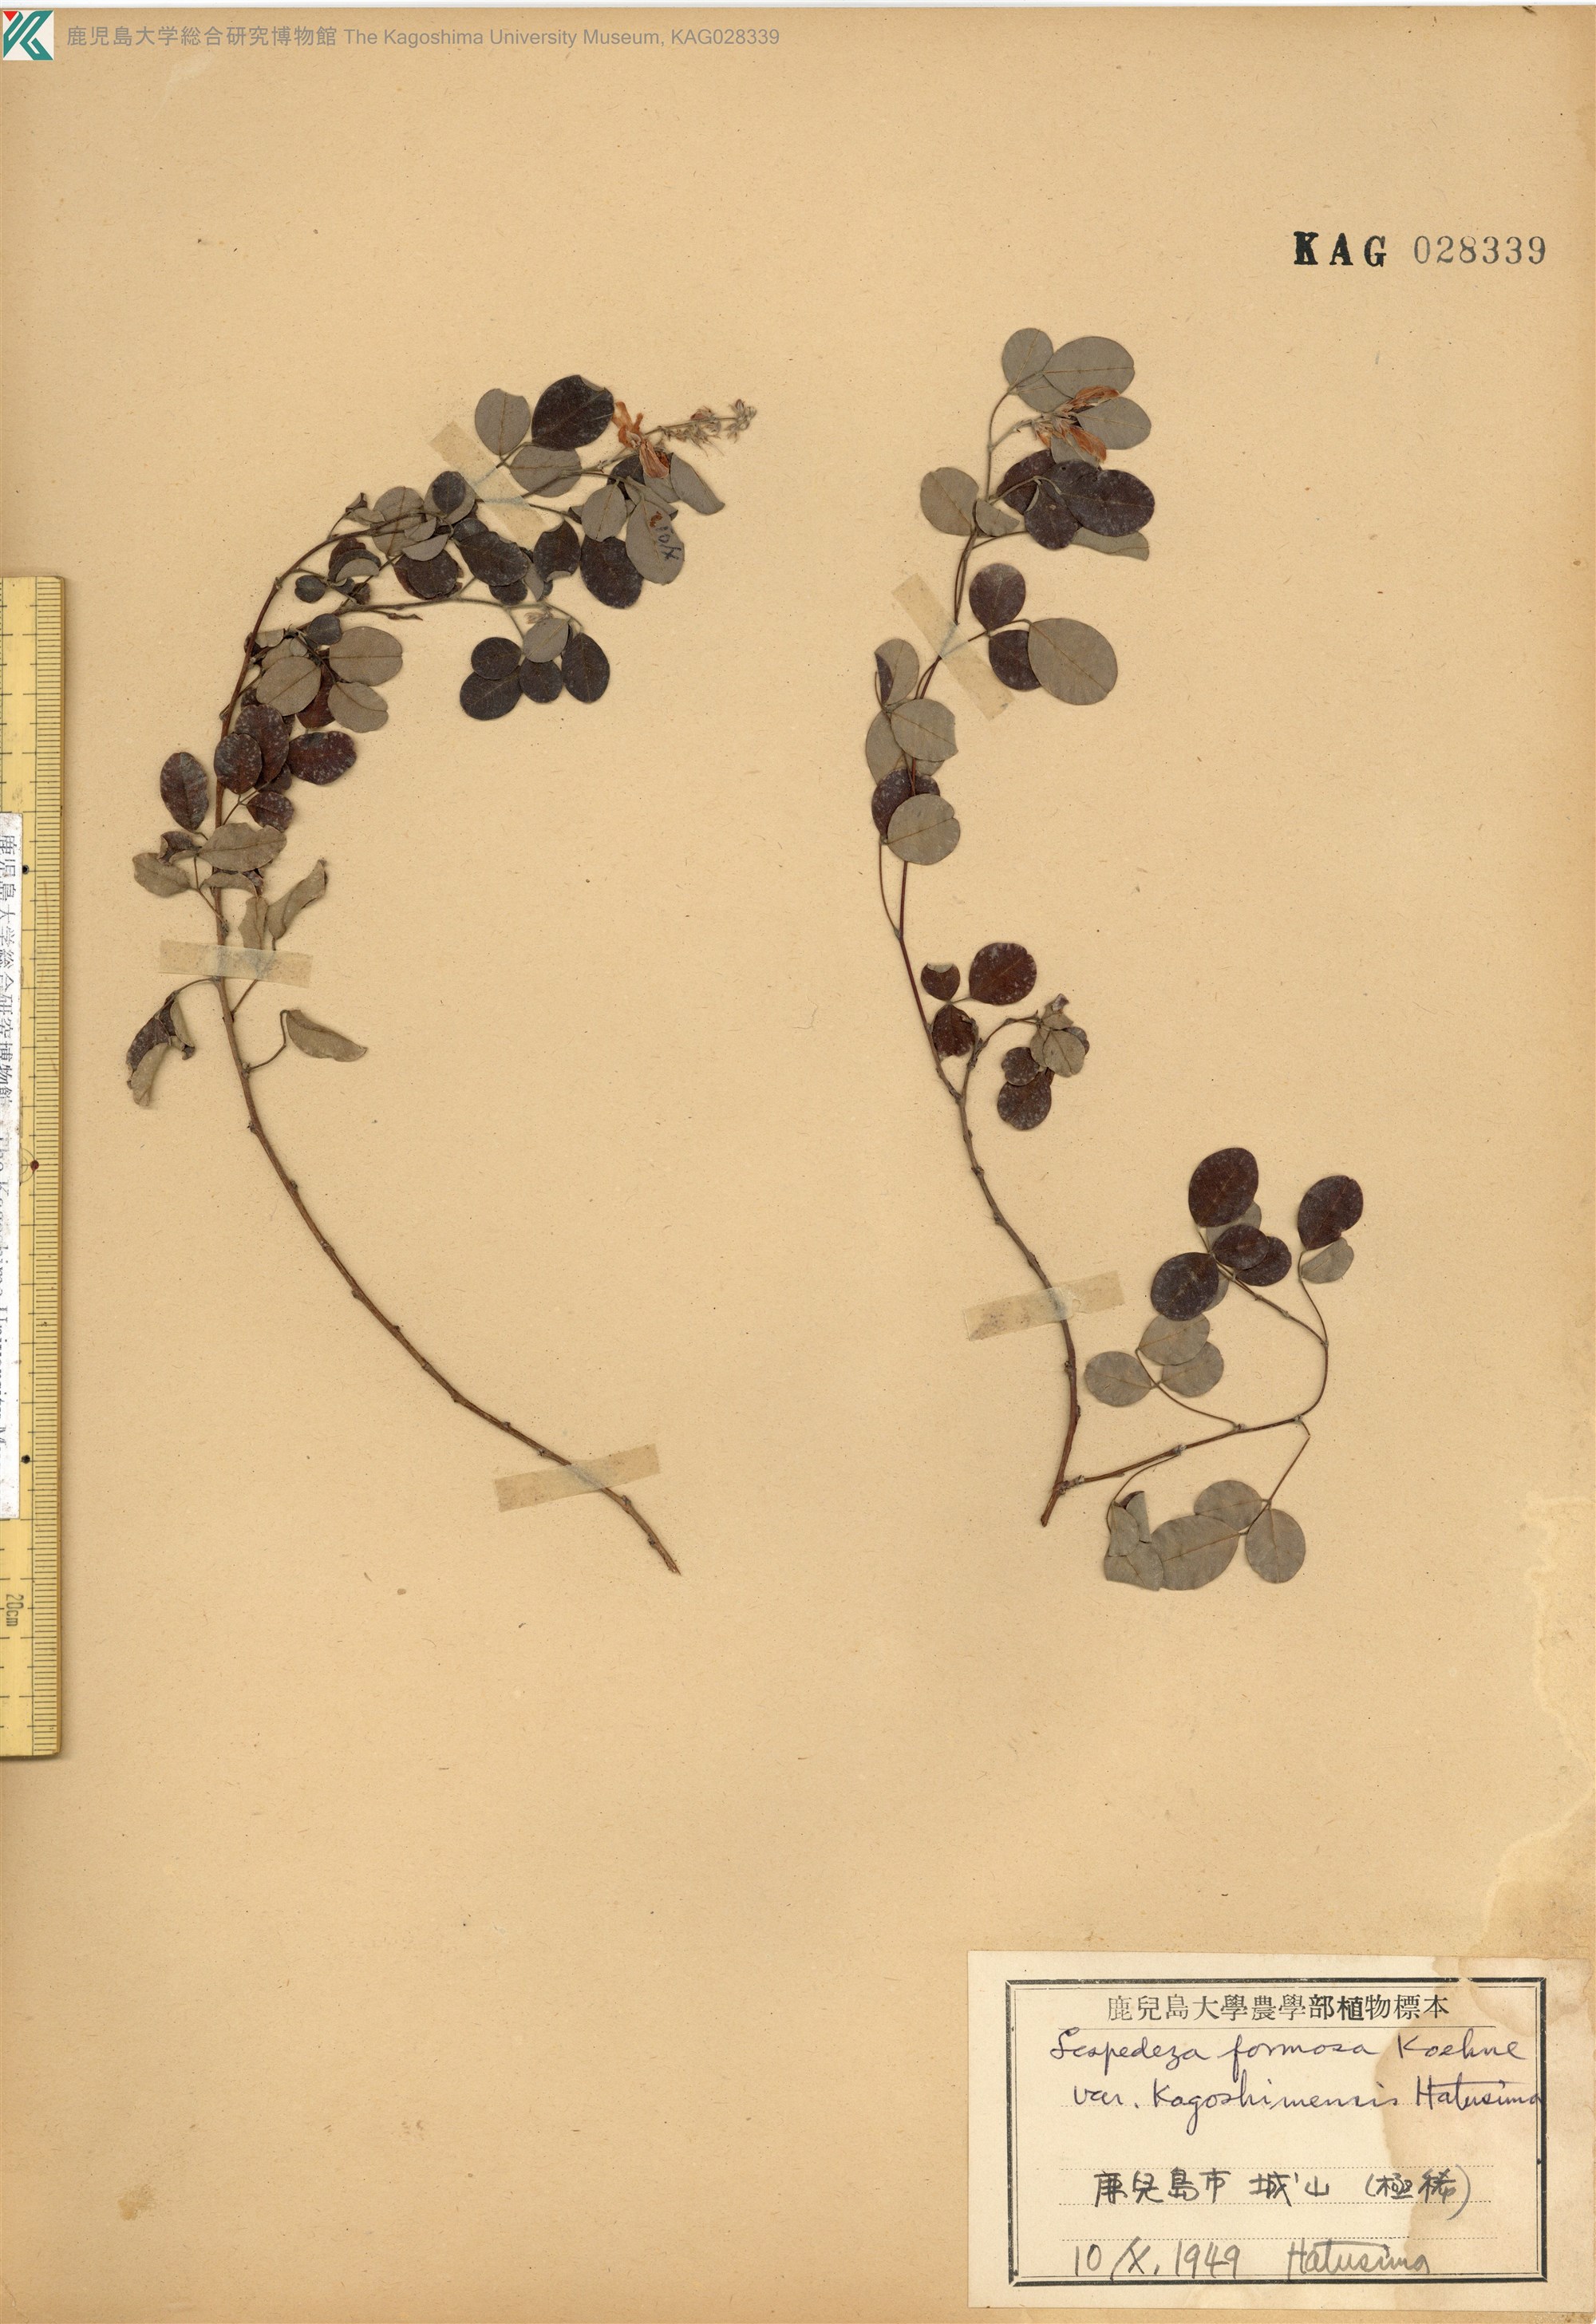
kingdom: Plantae
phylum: Tracheophyta
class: Magnoliopsida
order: Fabales
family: Fabaceae
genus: Lespedeza
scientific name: Lespedeza kagoshimensis
